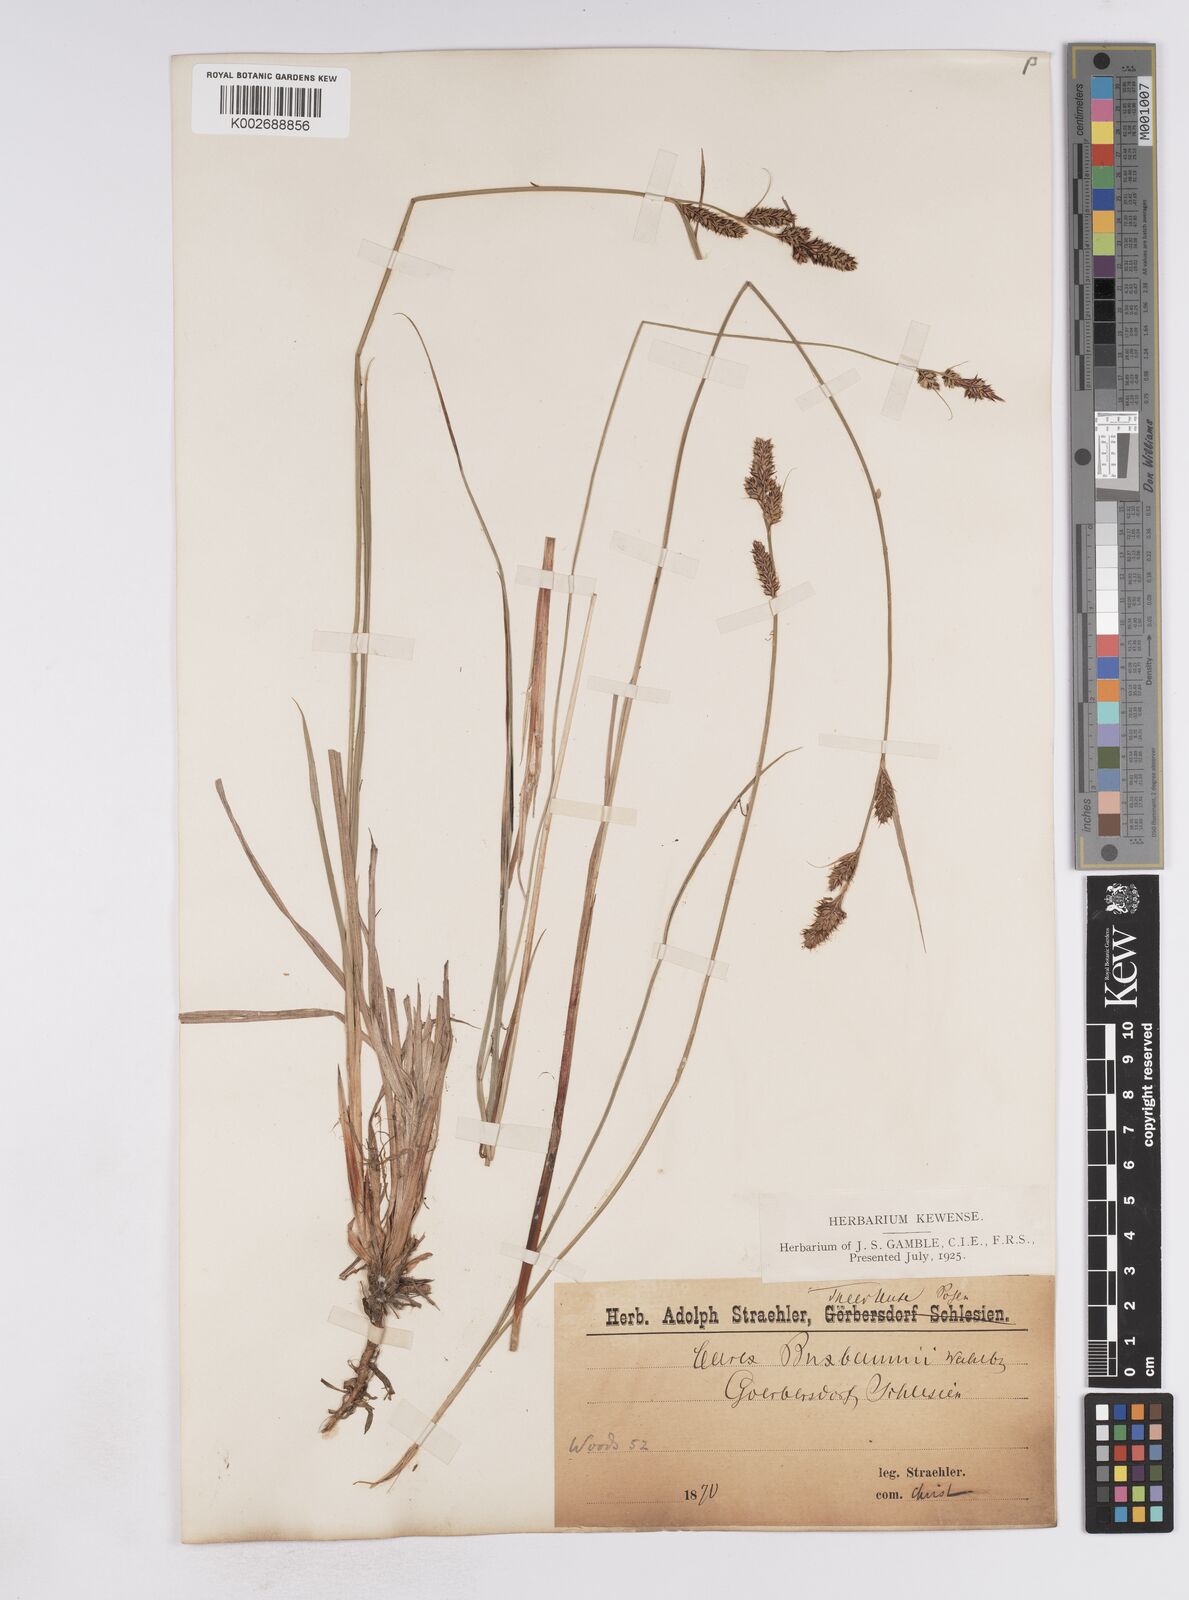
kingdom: Plantae
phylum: Tracheophyta
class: Liliopsida
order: Poales
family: Cyperaceae
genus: Carex
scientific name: Carex buxbaumii
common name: Club sedge
